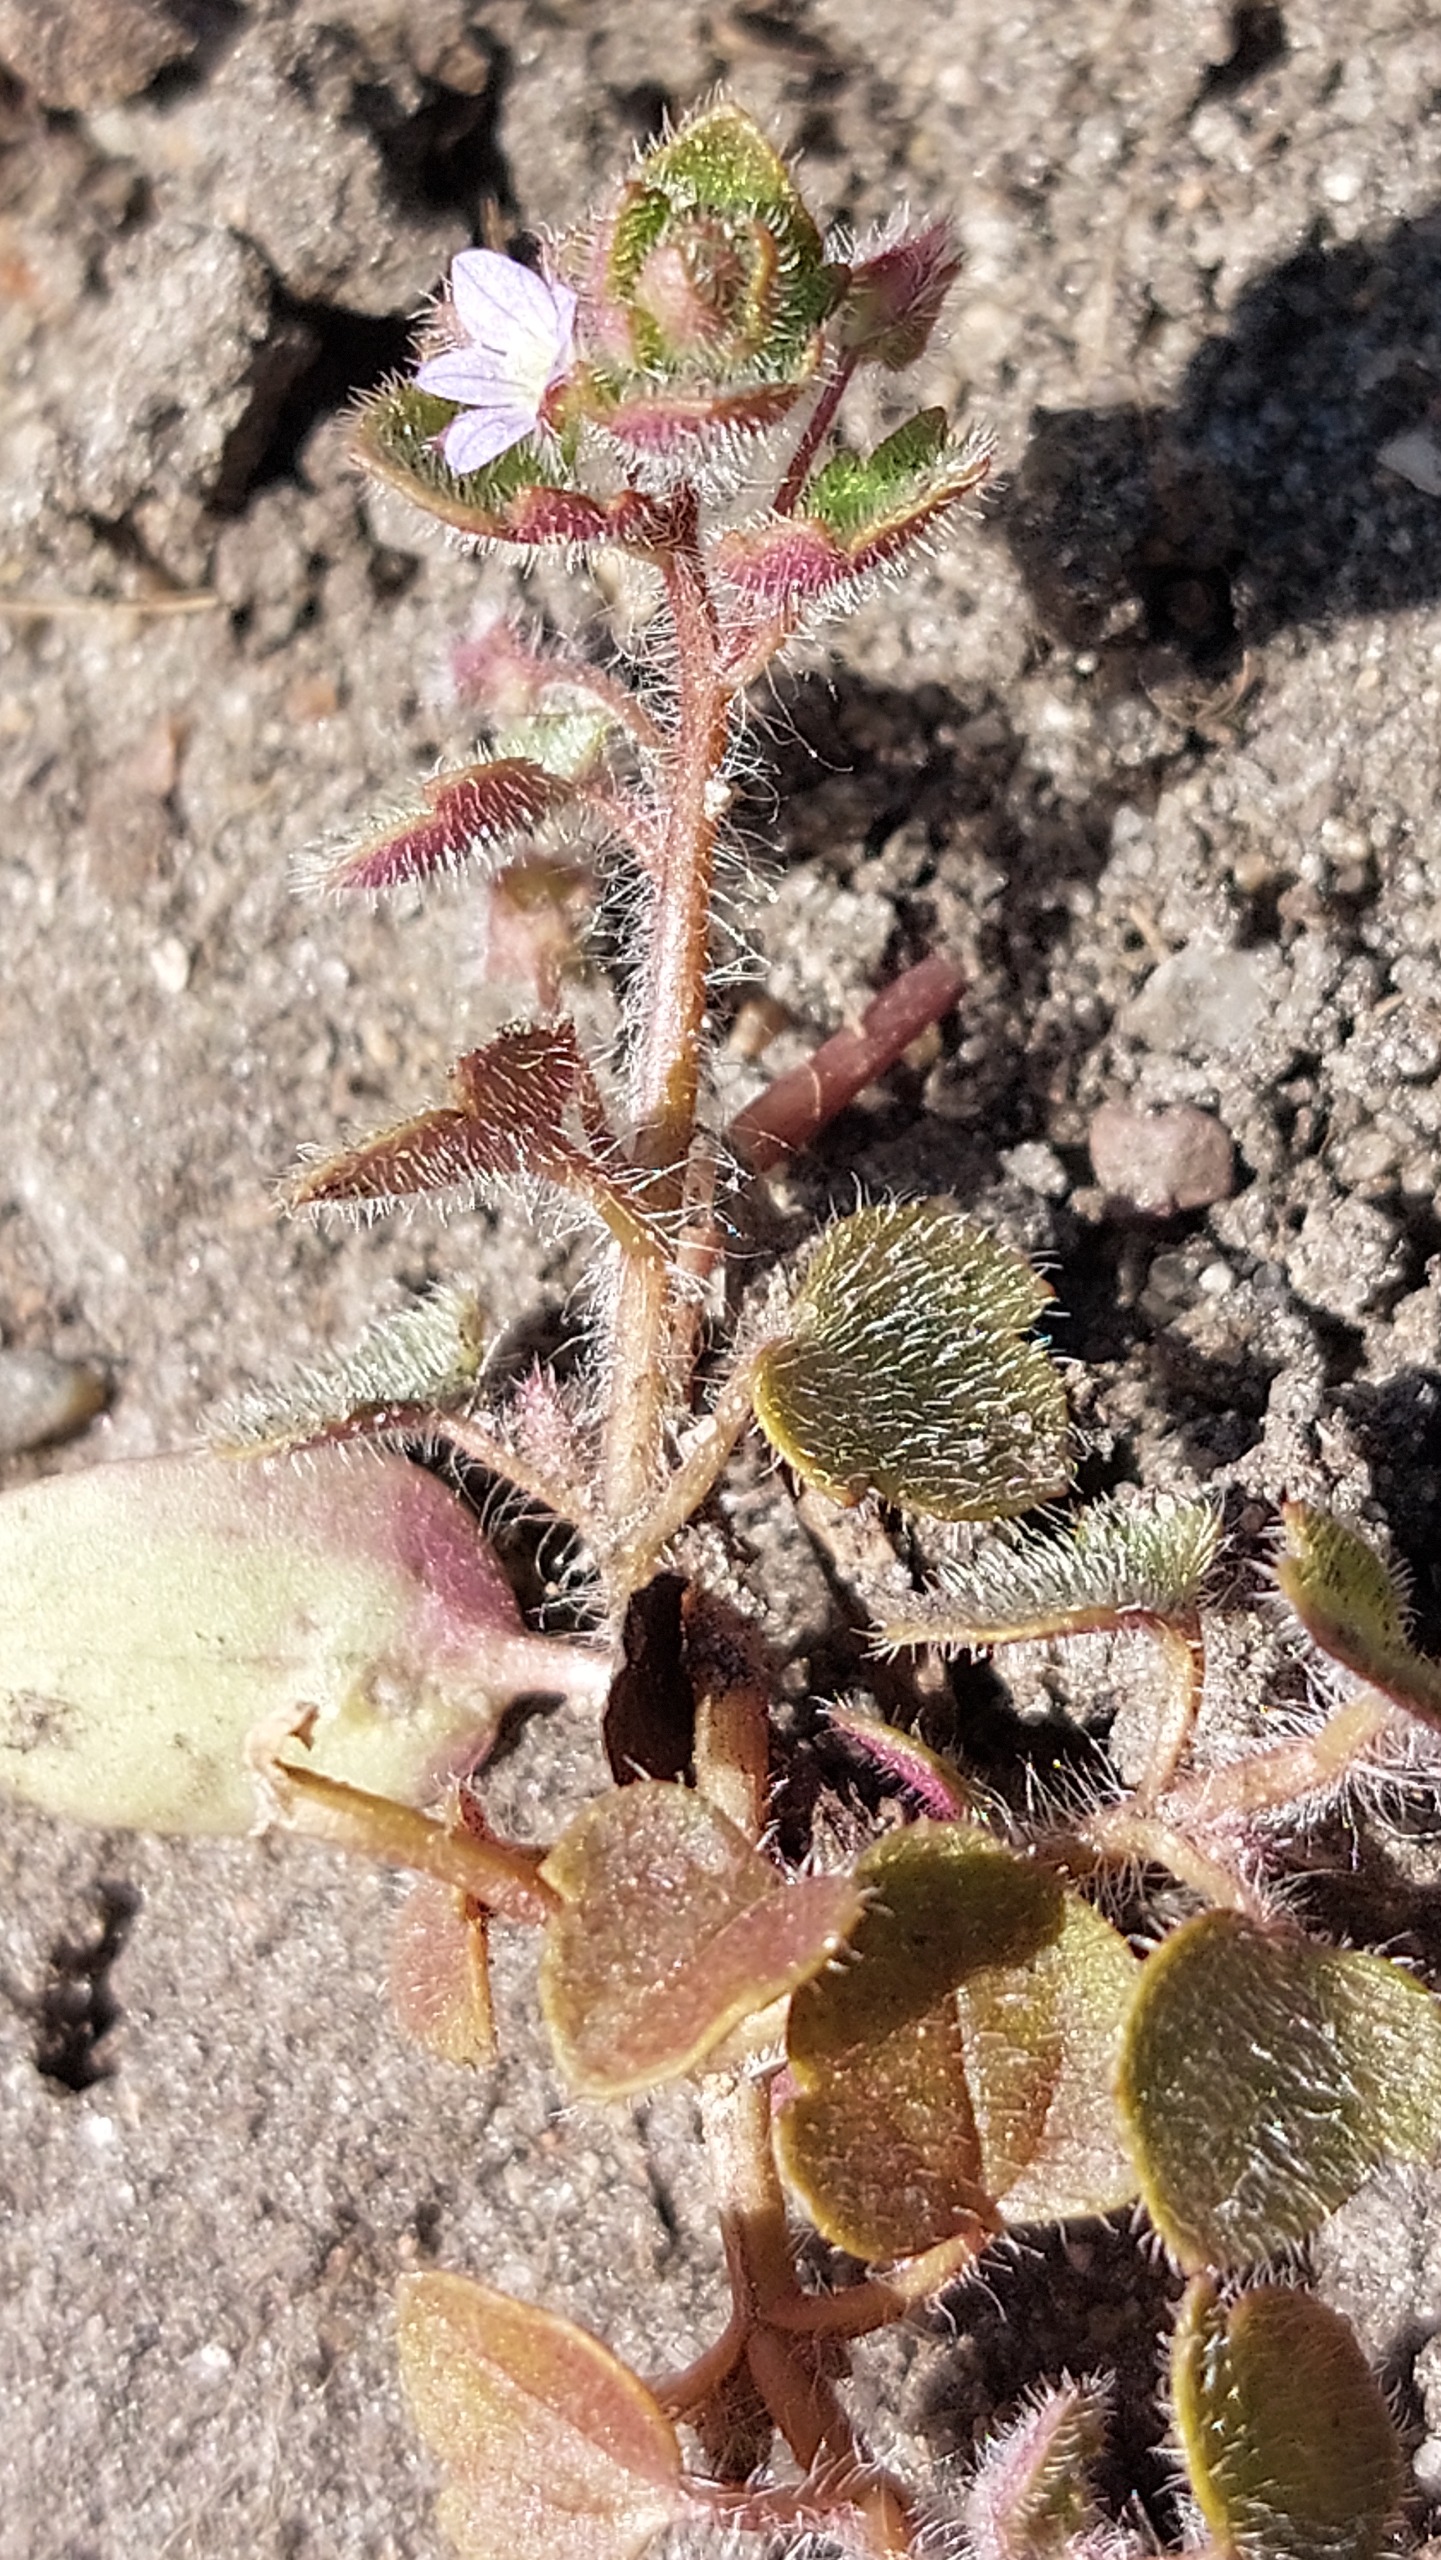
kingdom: Plantae
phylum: Tracheophyta
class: Magnoliopsida
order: Lamiales
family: Plantaginaceae
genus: Veronica
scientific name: Veronica sublobata
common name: Krat-ærenpris
